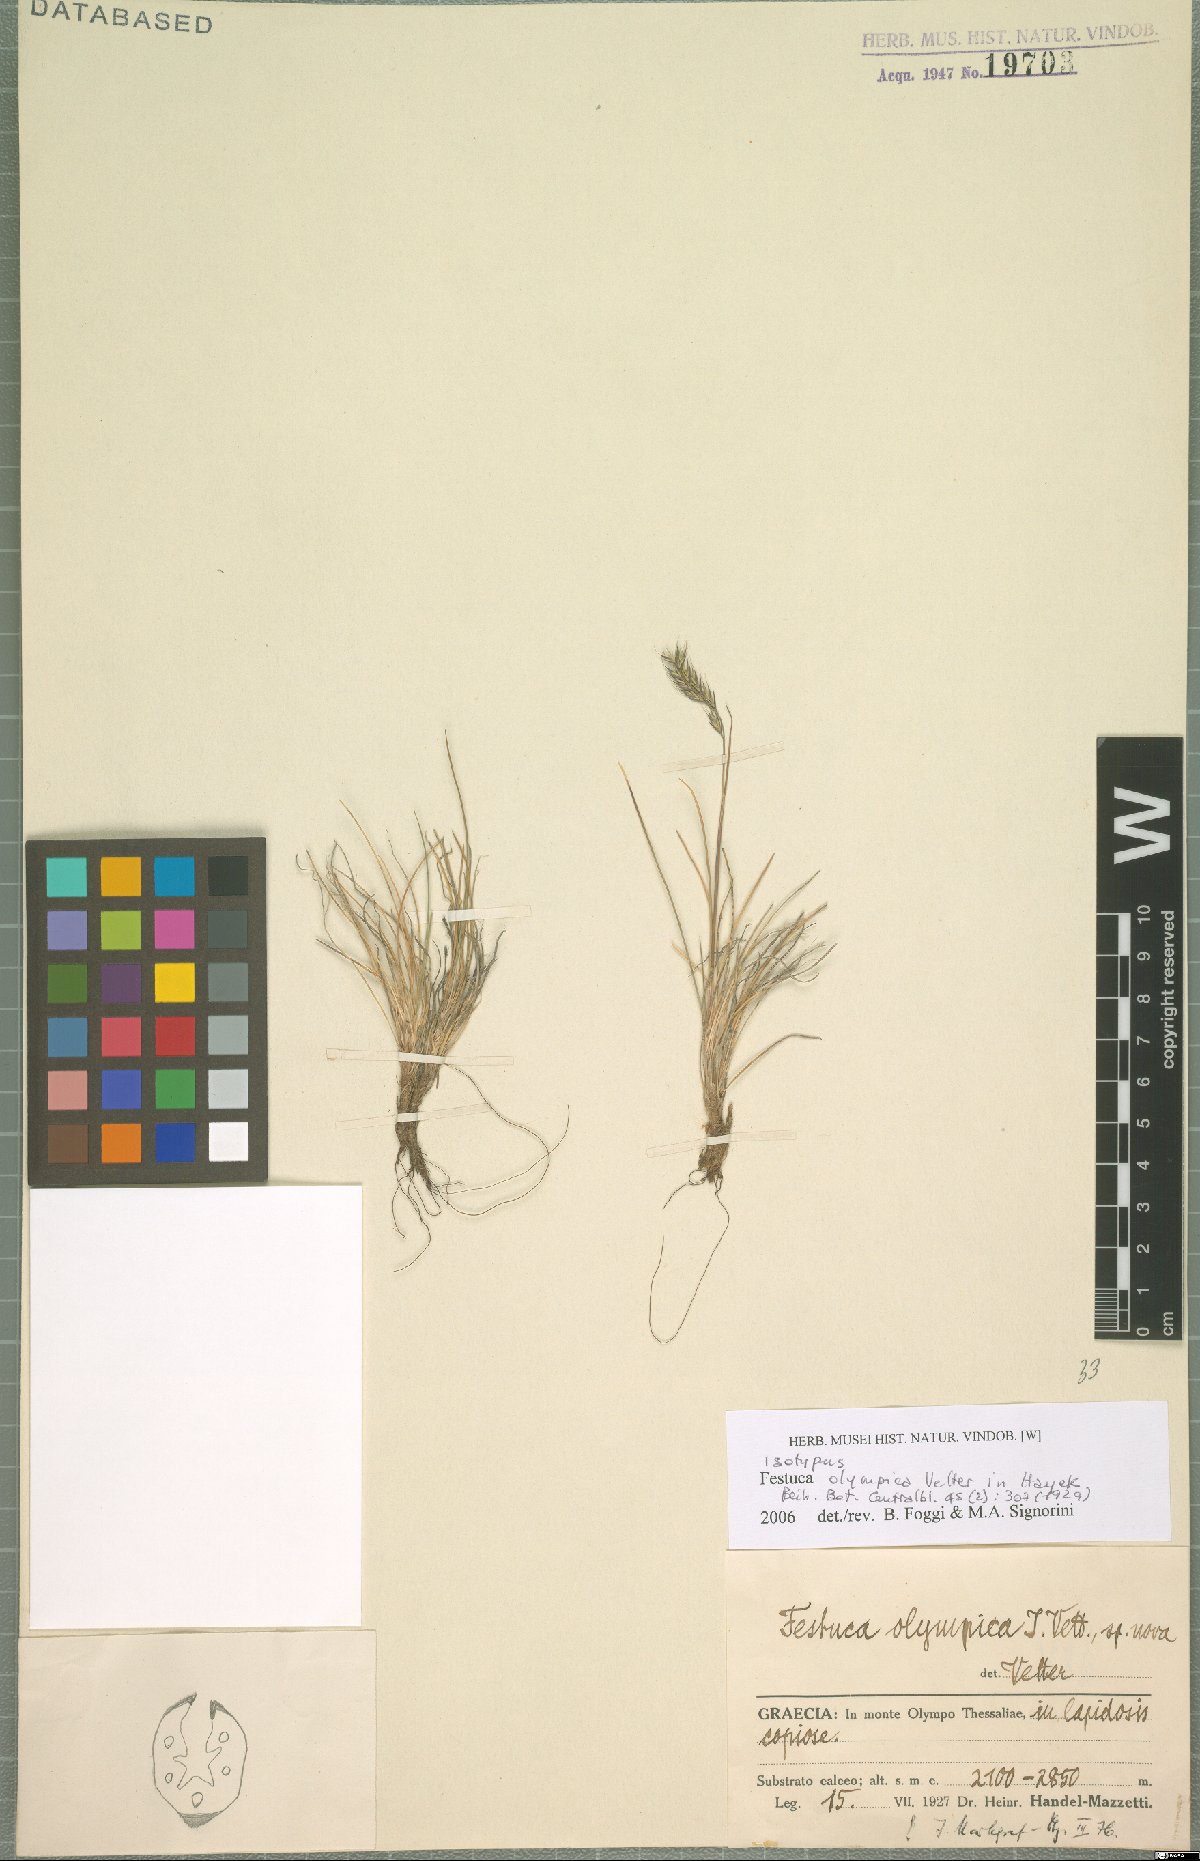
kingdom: Plantae
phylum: Tracheophyta
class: Liliopsida
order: Poales
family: Poaceae
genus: Festuca
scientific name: Festuca olympica
